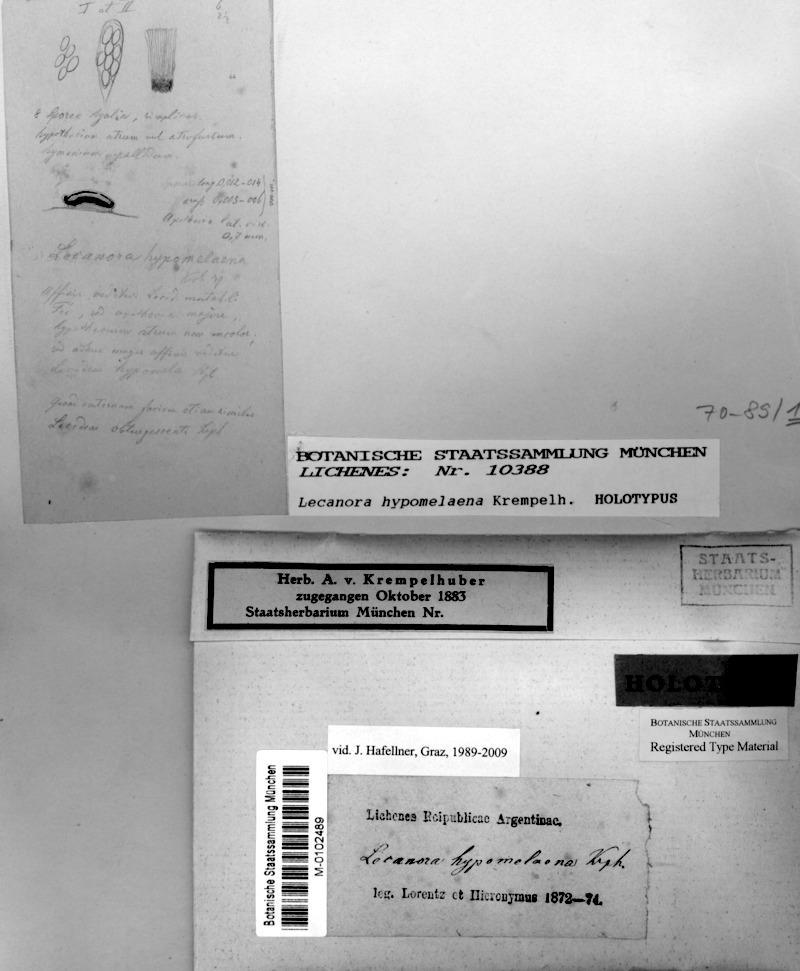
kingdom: Fungi
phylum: Ascomycota
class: Lecanoromycetes
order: Lecanorales
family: Malmideaceae
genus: Malmidea
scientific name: Malmidea piperis
